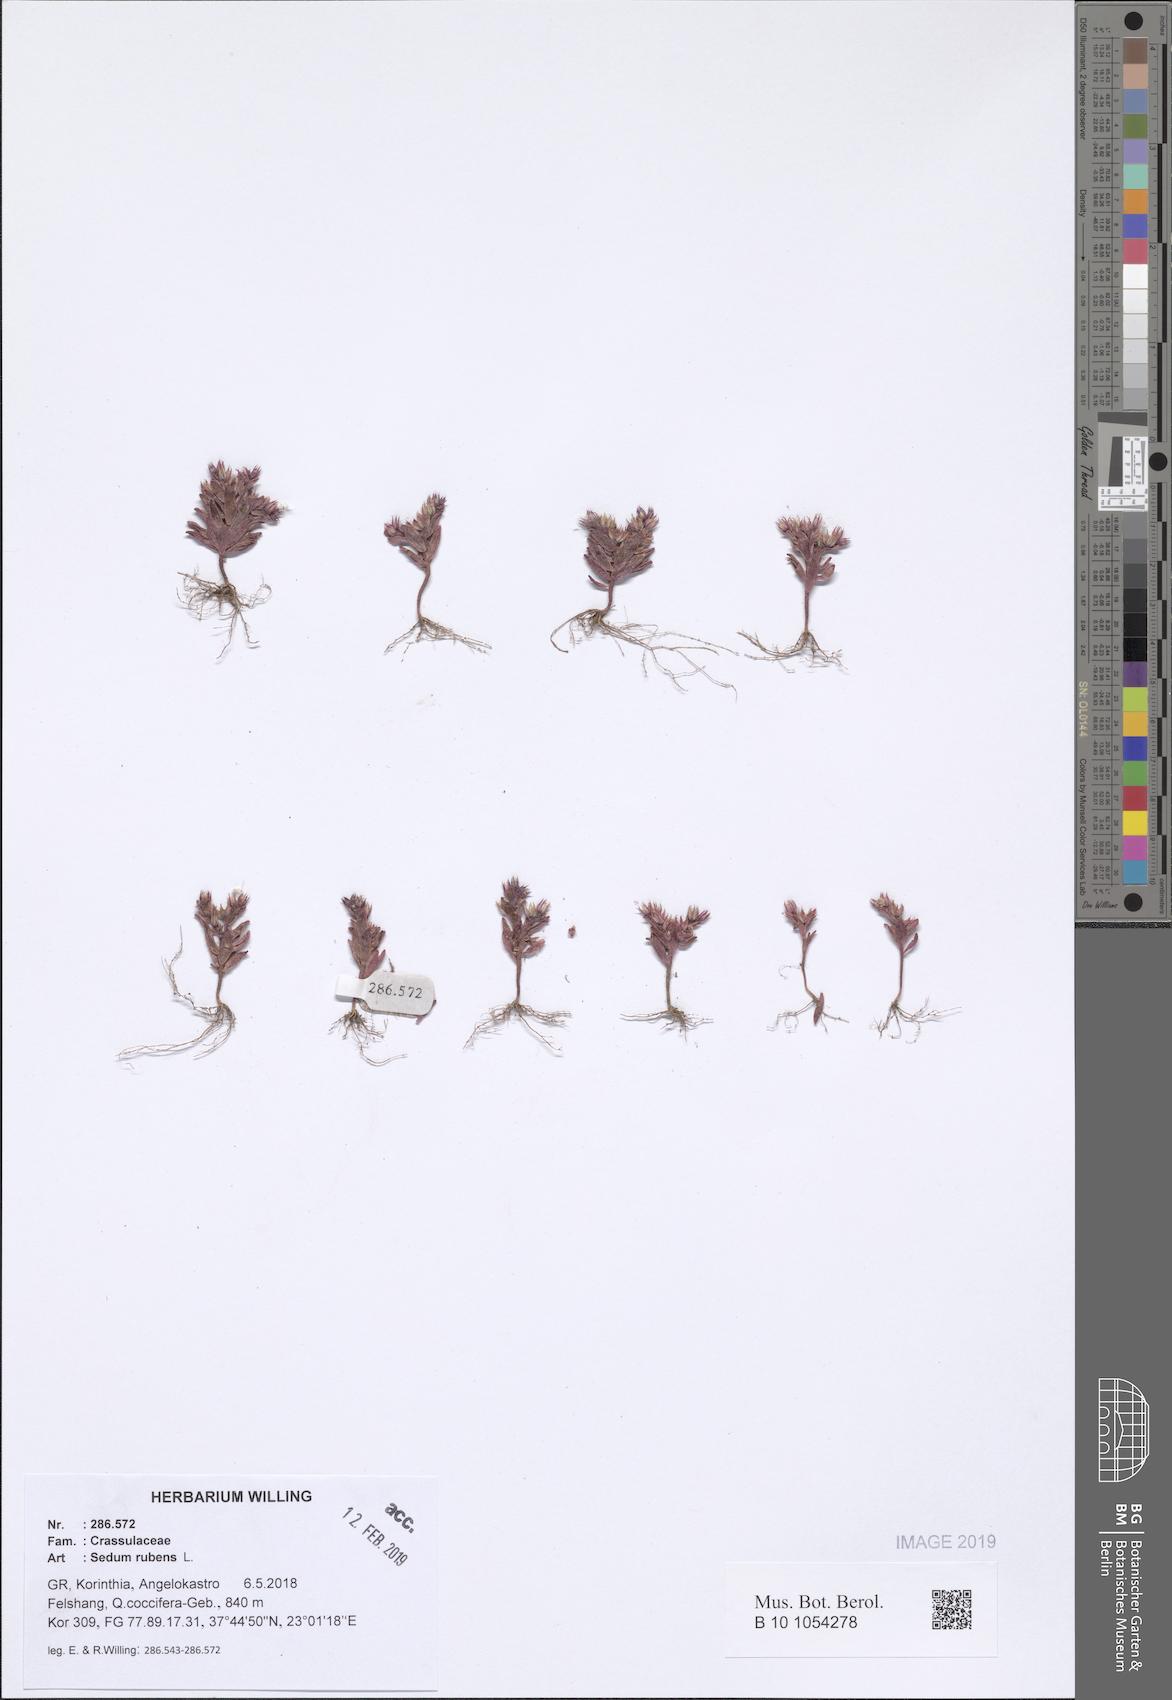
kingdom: Plantae
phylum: Tracheophyta
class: Magnoliopsida
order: Saxifragales
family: Crassulaceae
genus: Sedum
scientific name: Sedum rubens
